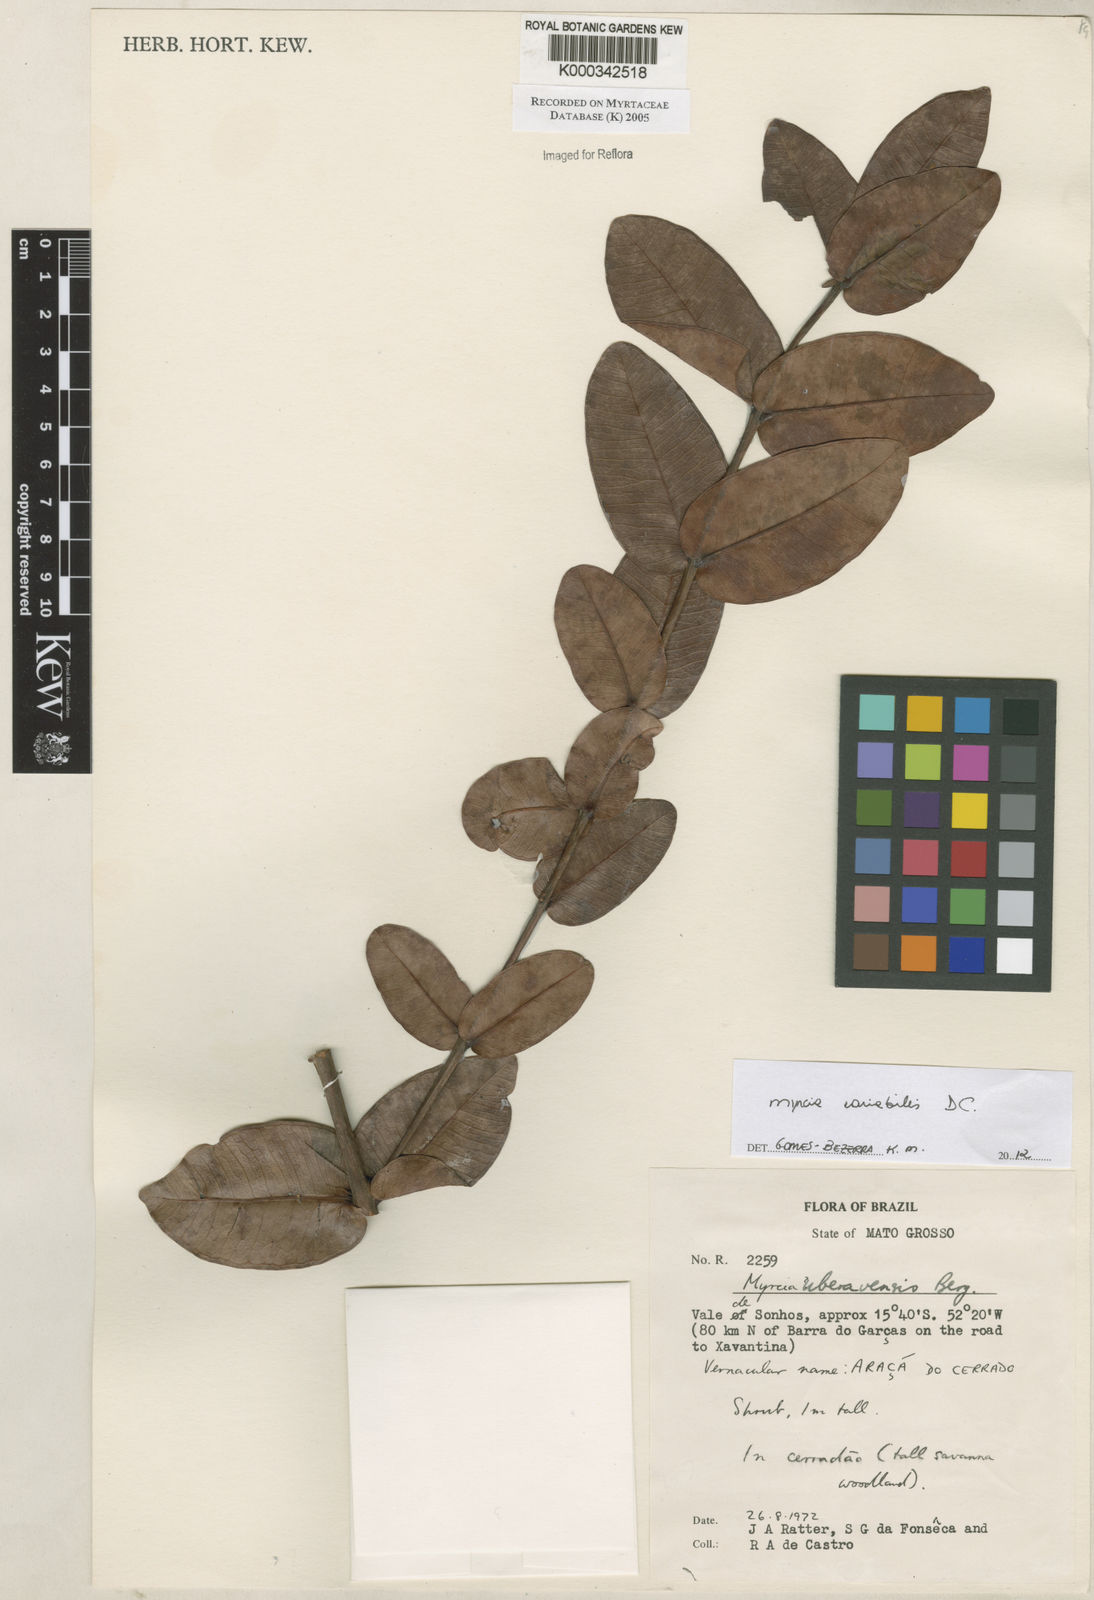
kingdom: Plantae
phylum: Tracheophyta
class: Magnoliopsida
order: Myrtales
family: Myrtaceae
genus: Myrcia
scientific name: Myrcia uberavensis
